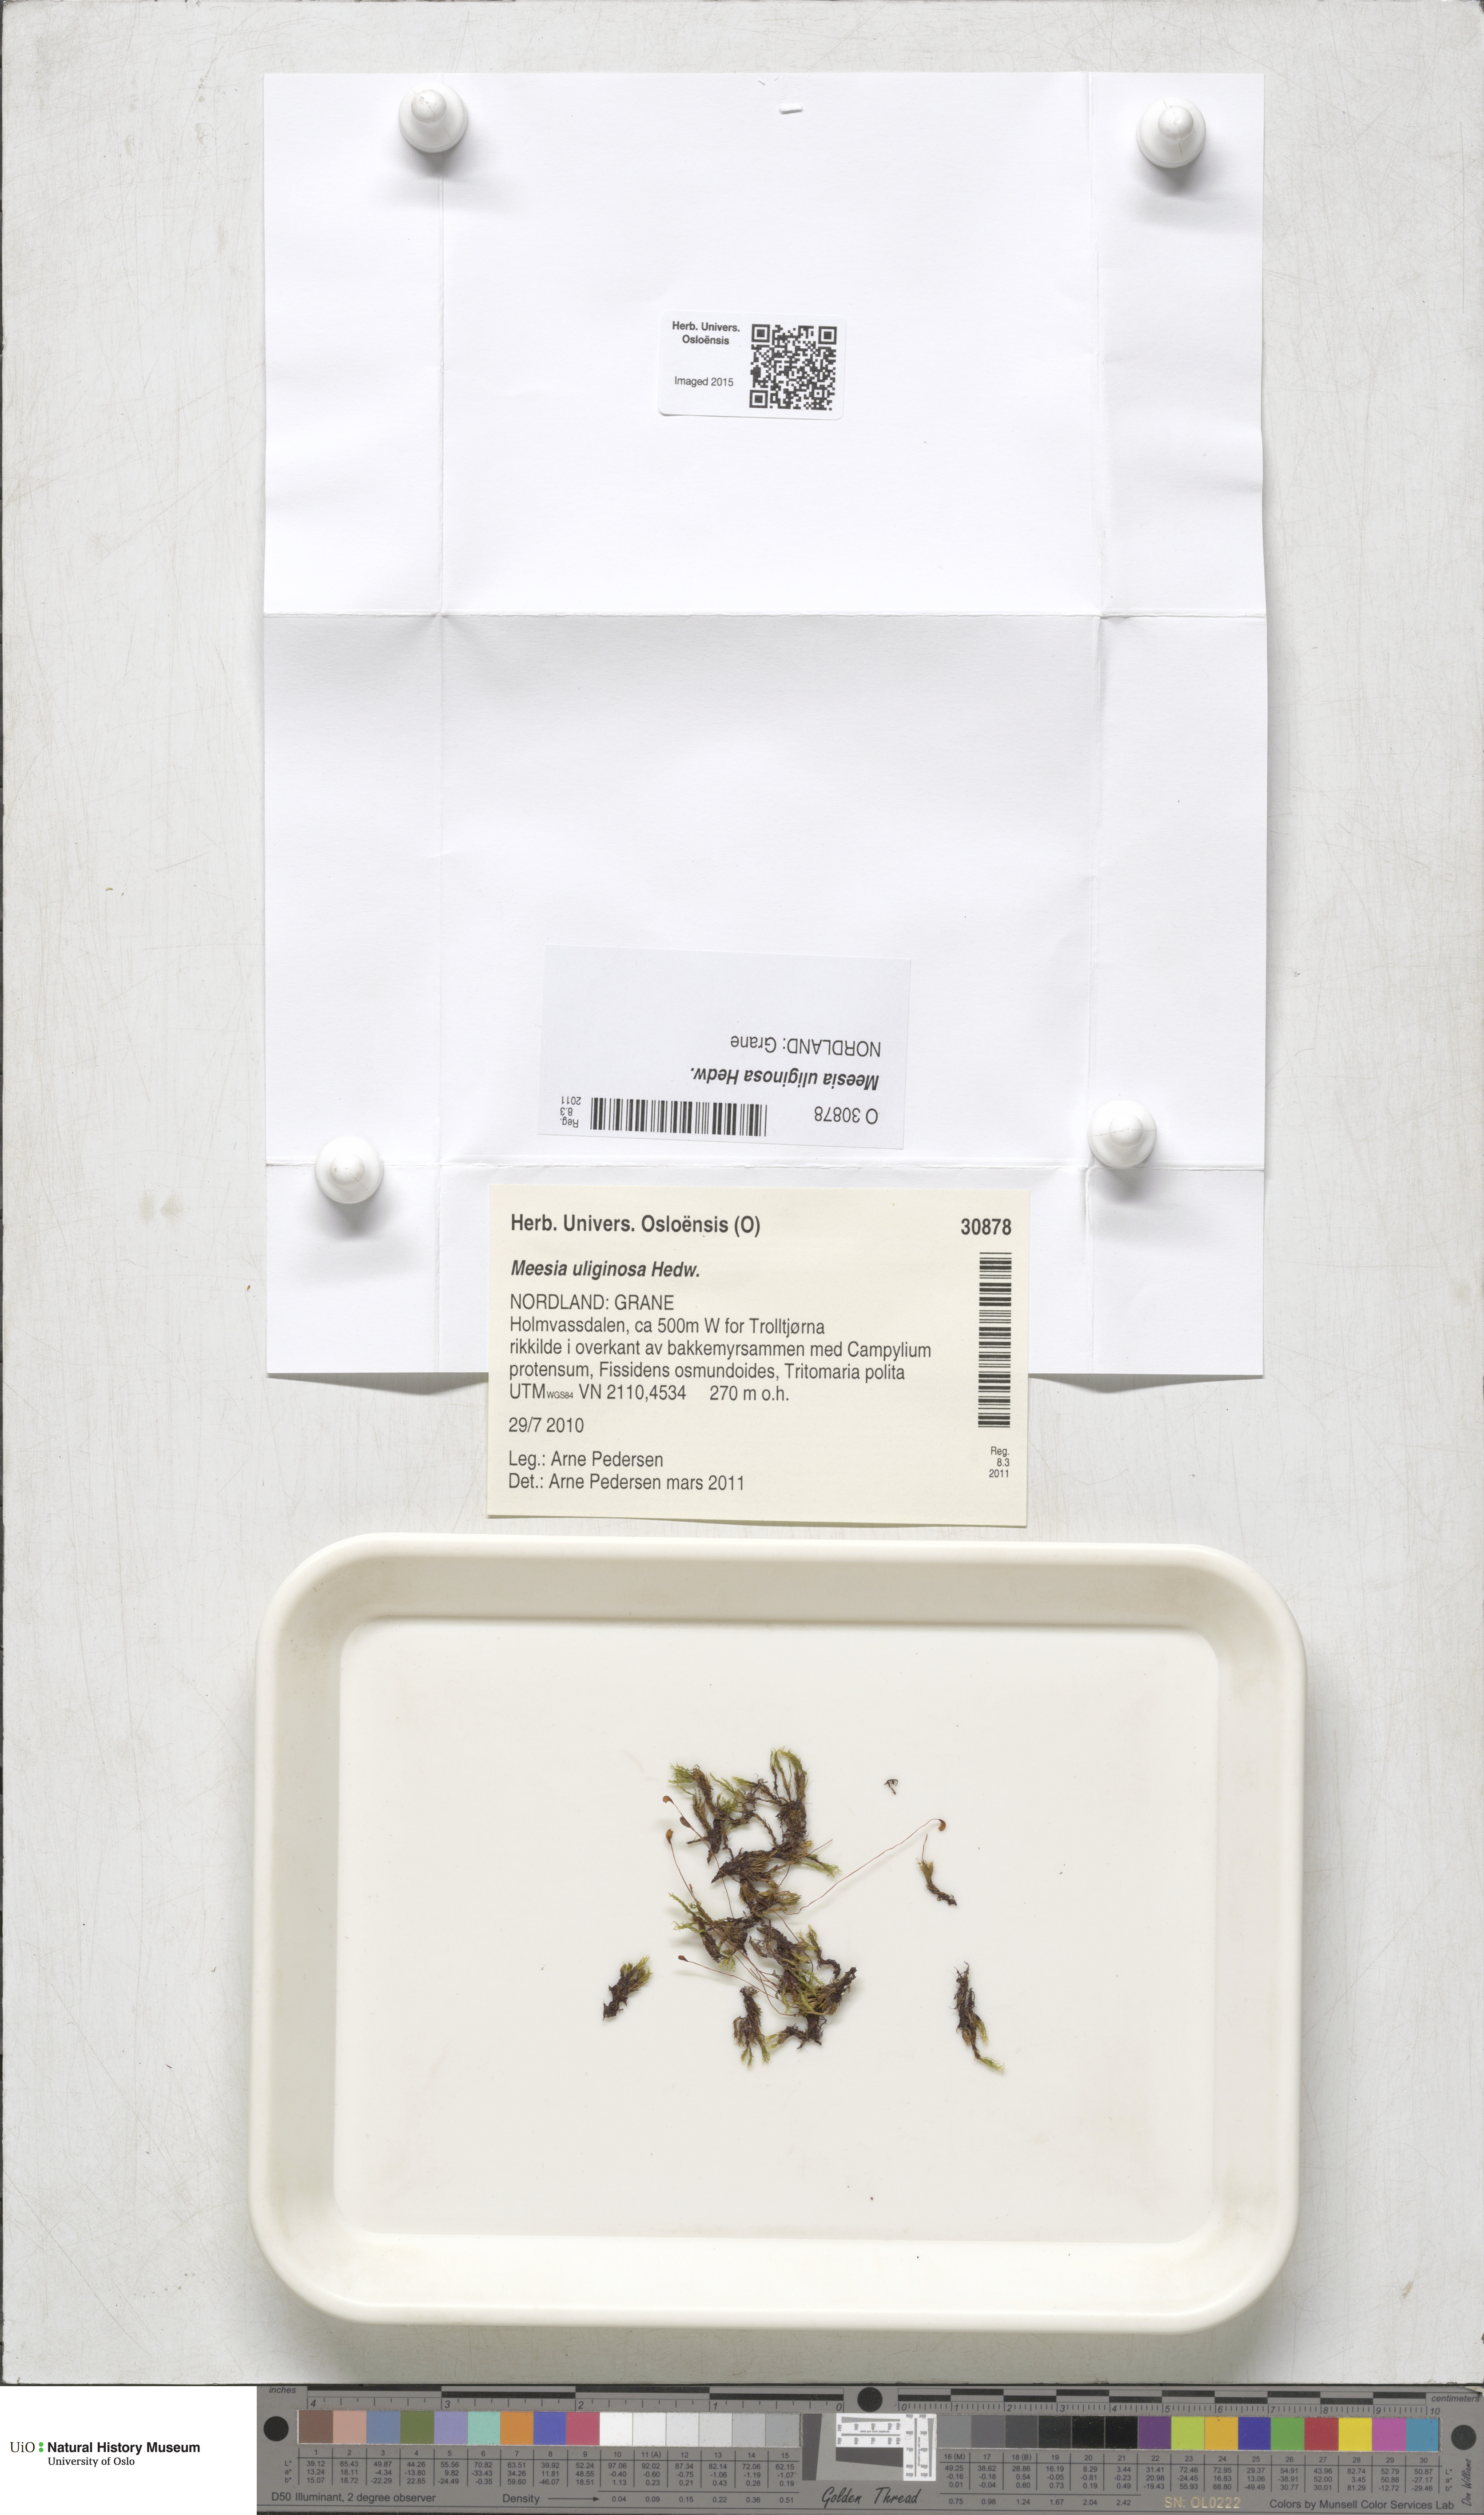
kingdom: Plantae
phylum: Bryophyta
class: Bryopsida
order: Splachnales
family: Meesiaceae
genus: Meesia
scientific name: Meesia uliginosa
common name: Capillary thread moss
